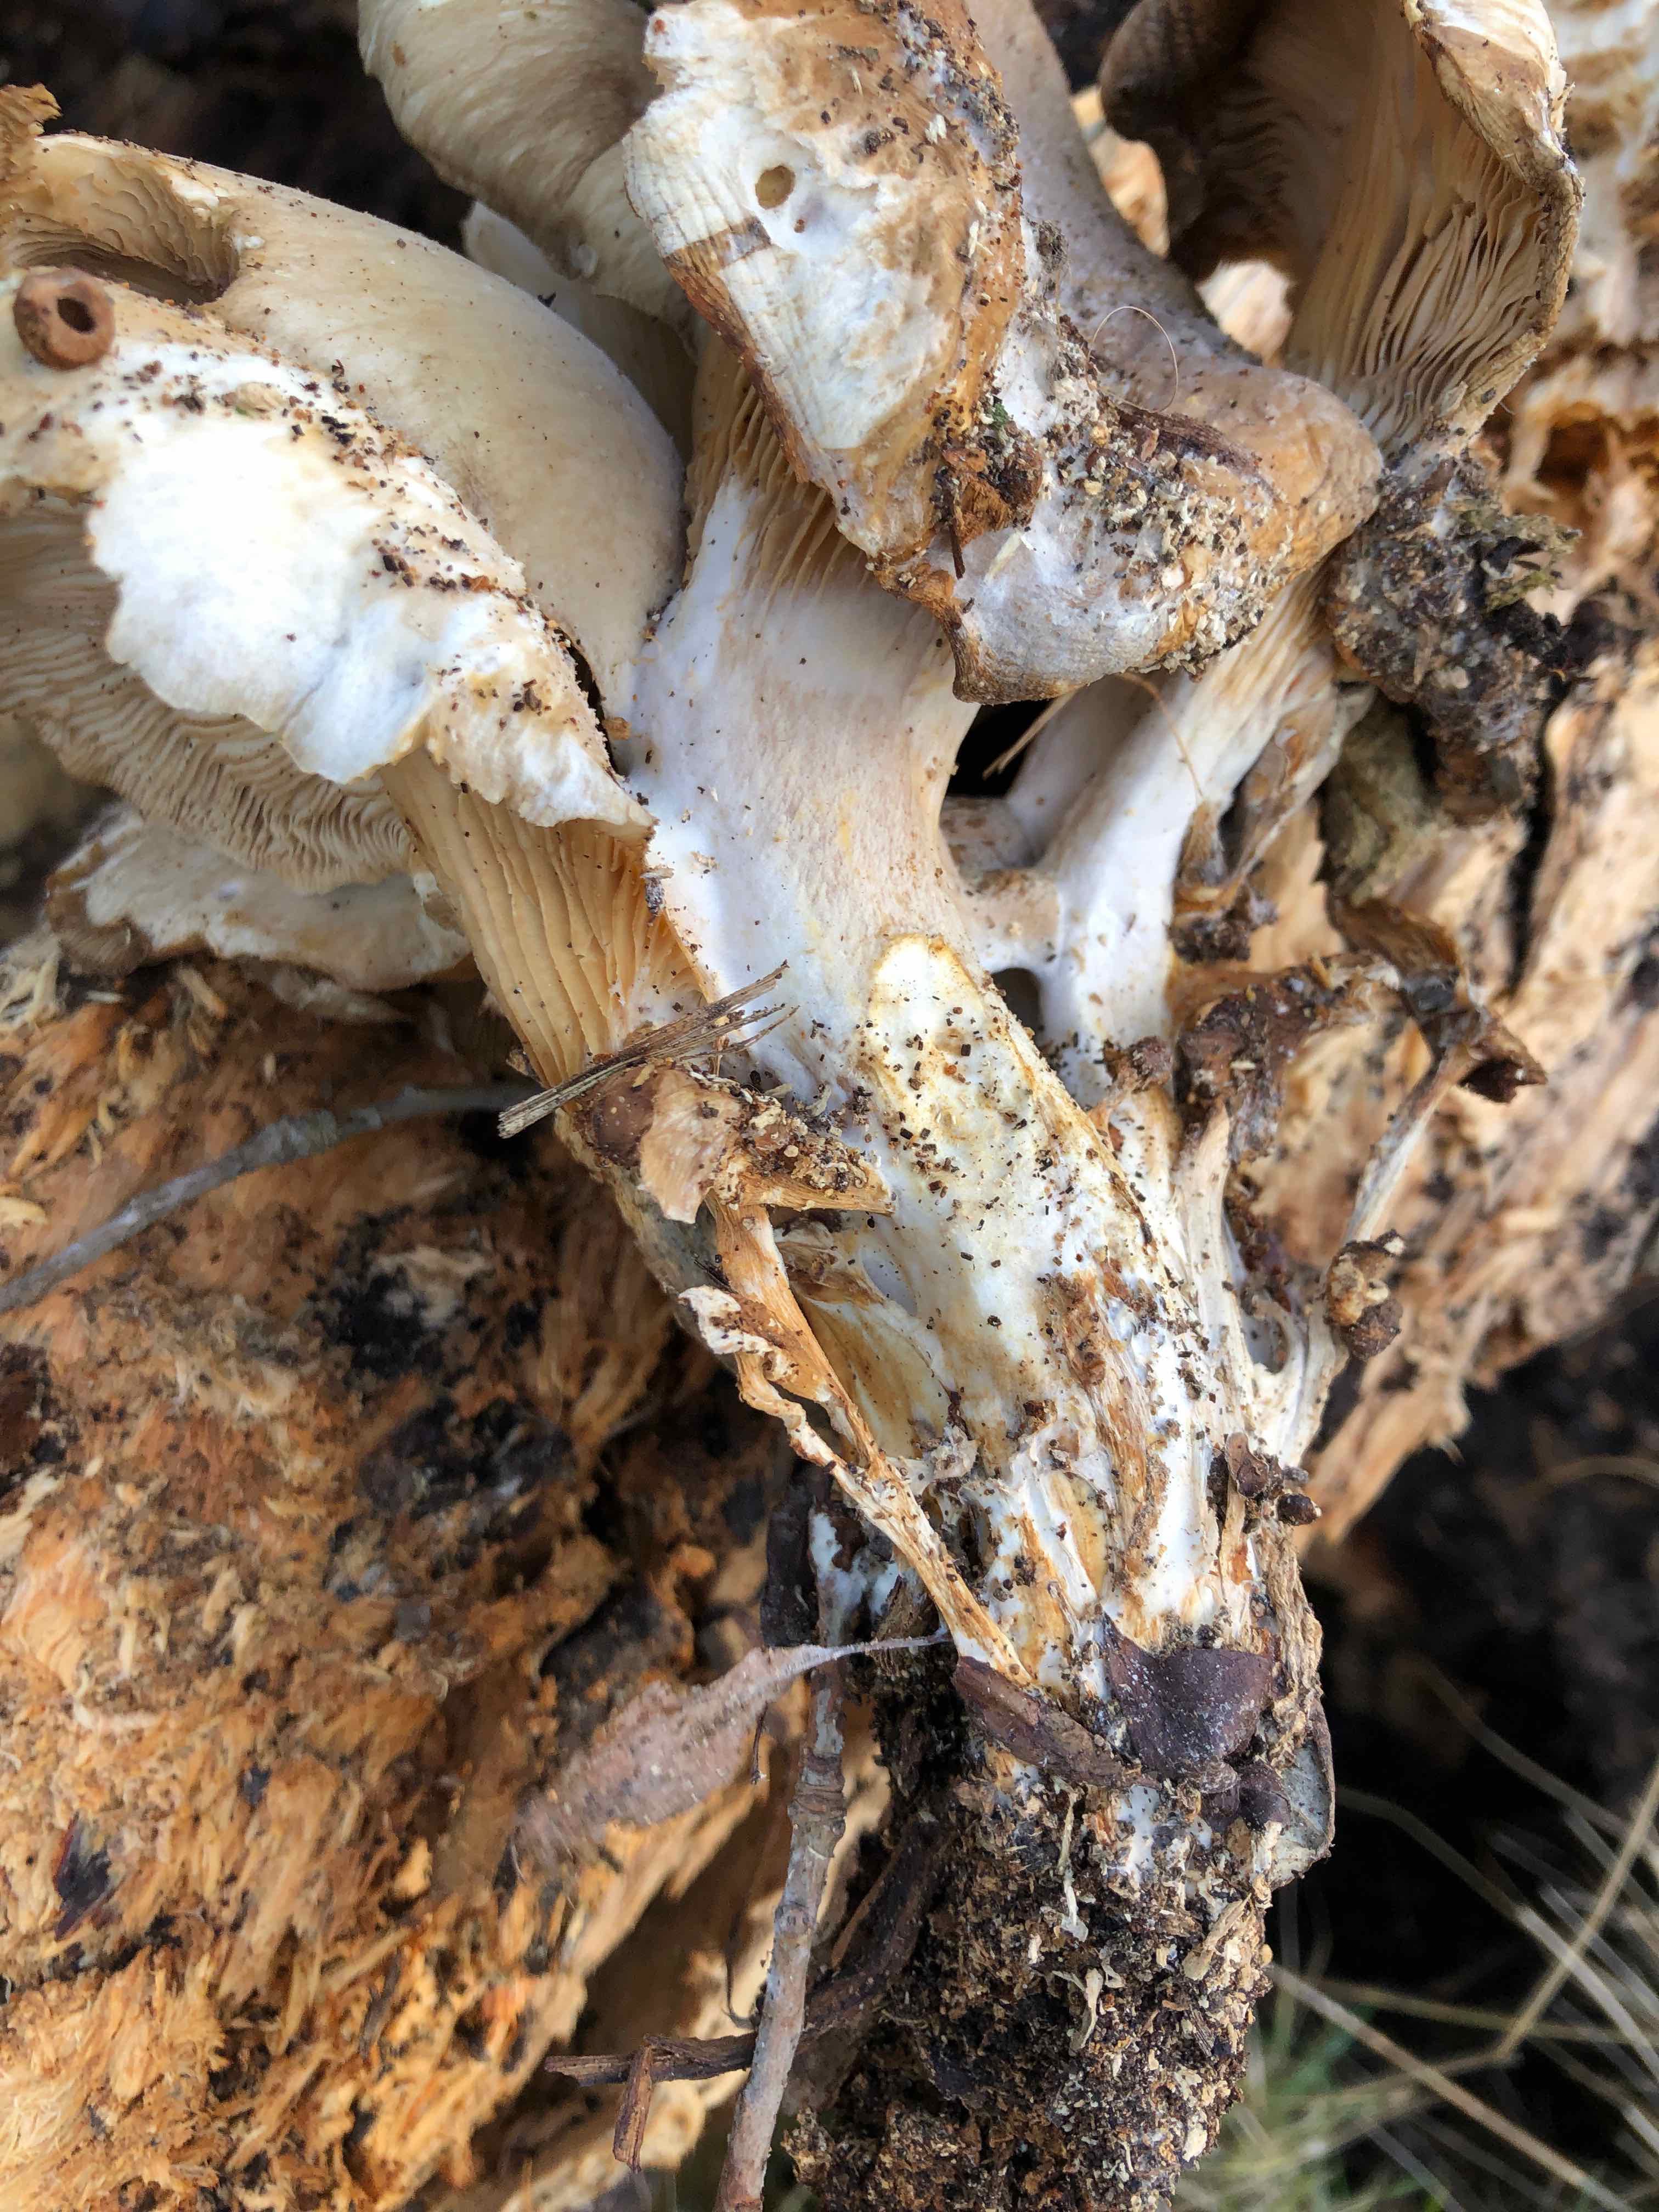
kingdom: Fungi
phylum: Basidiomycota
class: Agaricomycetes
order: Agaricales
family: Pleurotaceae
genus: Pleurotus
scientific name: Pleurotus ostreatus
